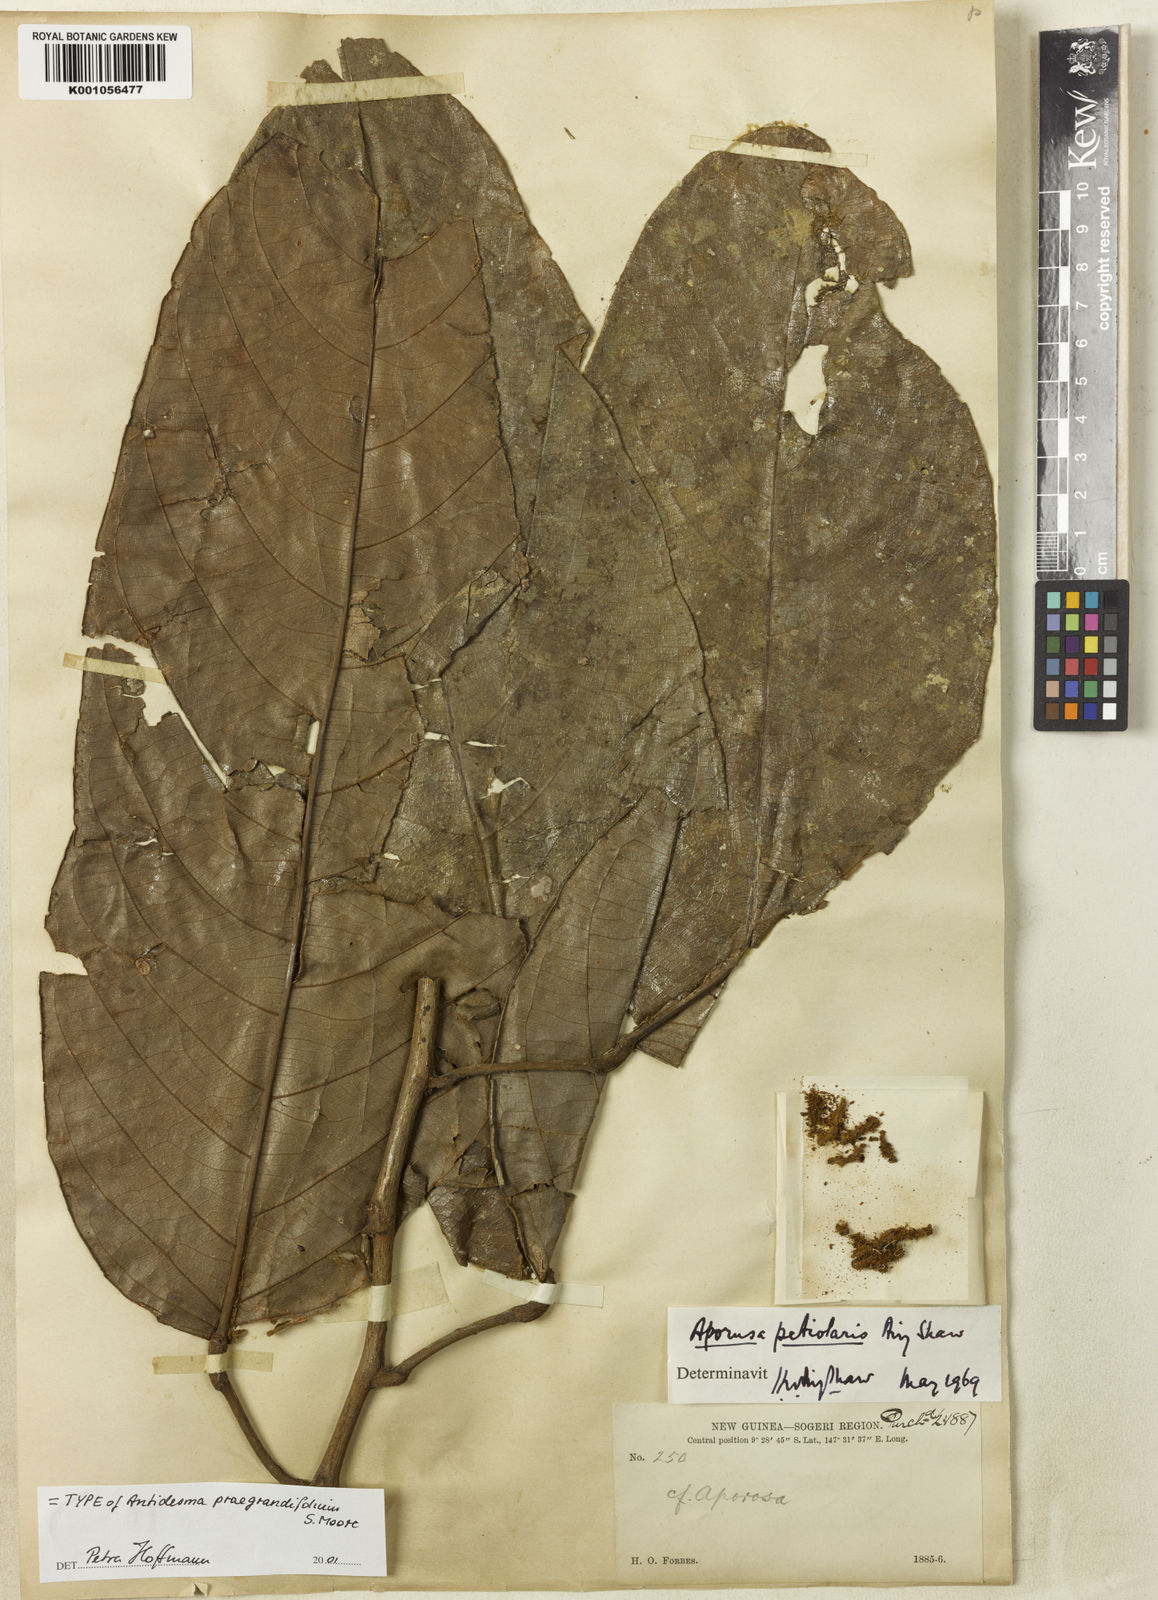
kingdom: Plantae
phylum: Tracheophyta
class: Magnoliopsida
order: Malpighiales
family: Phyllanthaceae
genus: Aporosa
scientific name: Aporosa praegrandifolia
